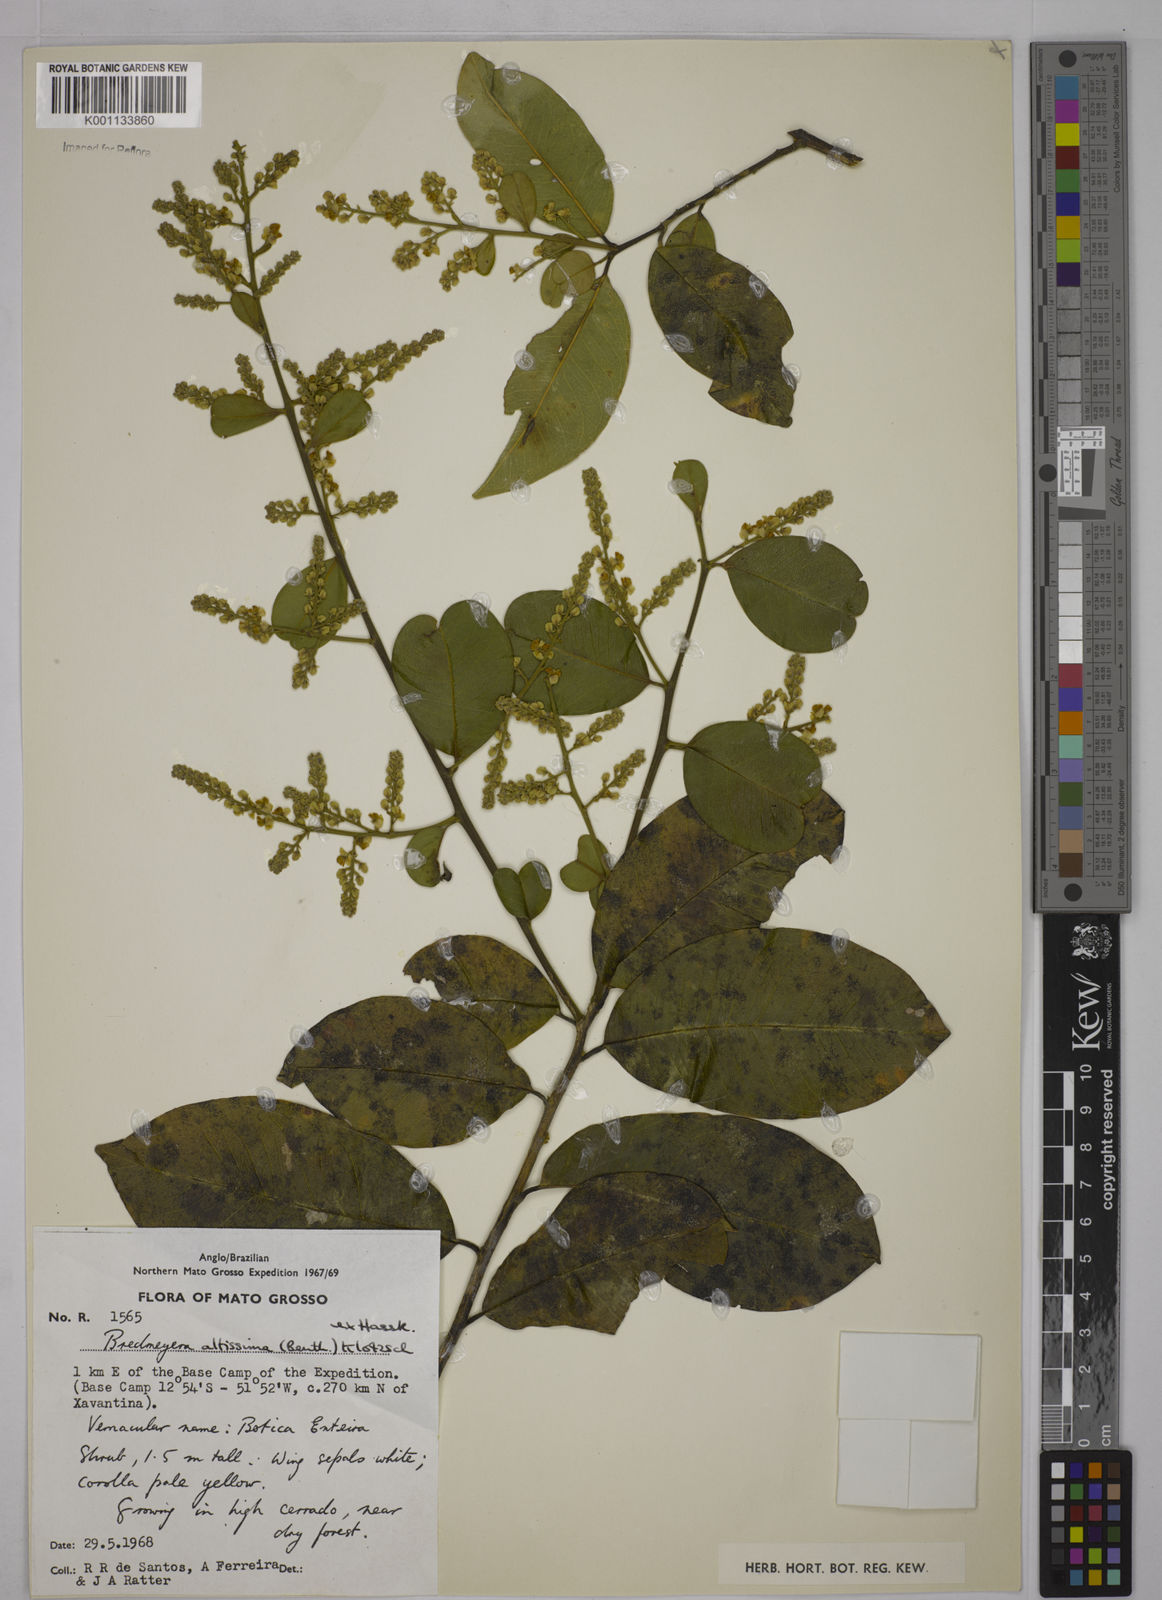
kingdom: Plantae
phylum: Tracheophyta
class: Magnoliopsida
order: Fabales
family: Polygalaceae
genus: Bredemeyera
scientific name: Bredemeyera divaricata
